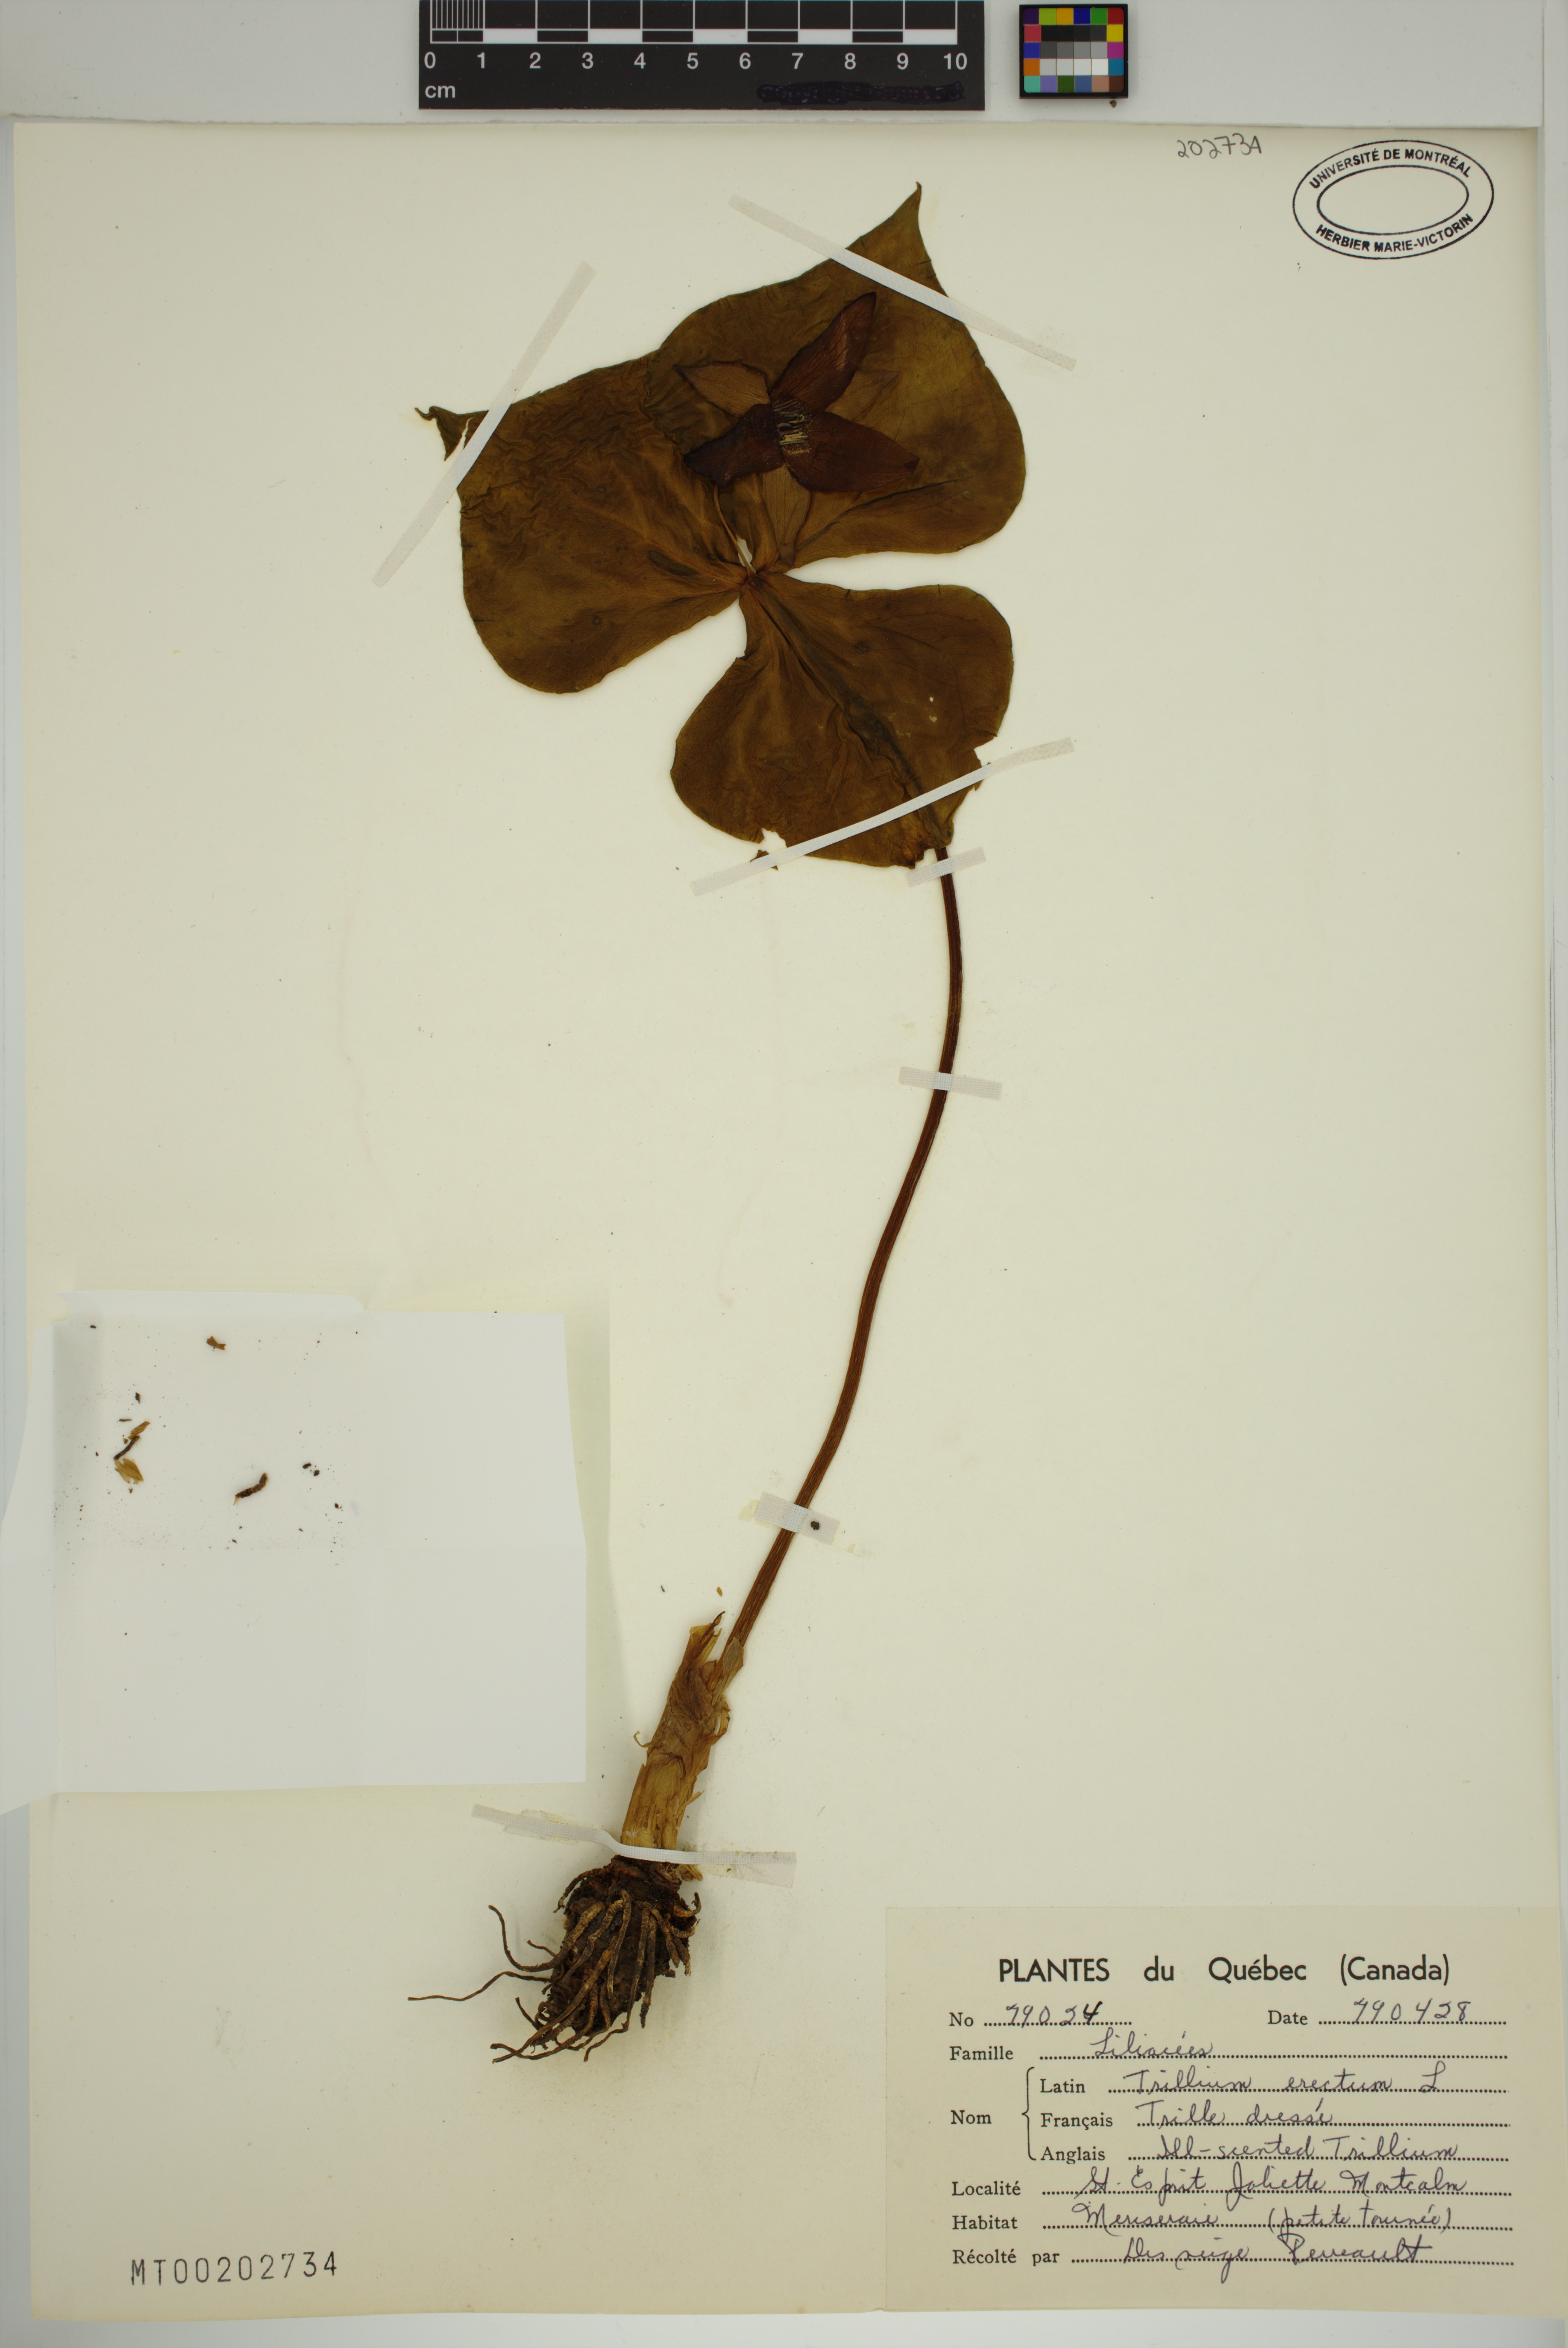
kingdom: Plantae
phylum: Tracheophyta
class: Liliopsida
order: Liliales
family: Melanthiaceae
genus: Trillium
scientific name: Trillium erectum
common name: Purple trillium
